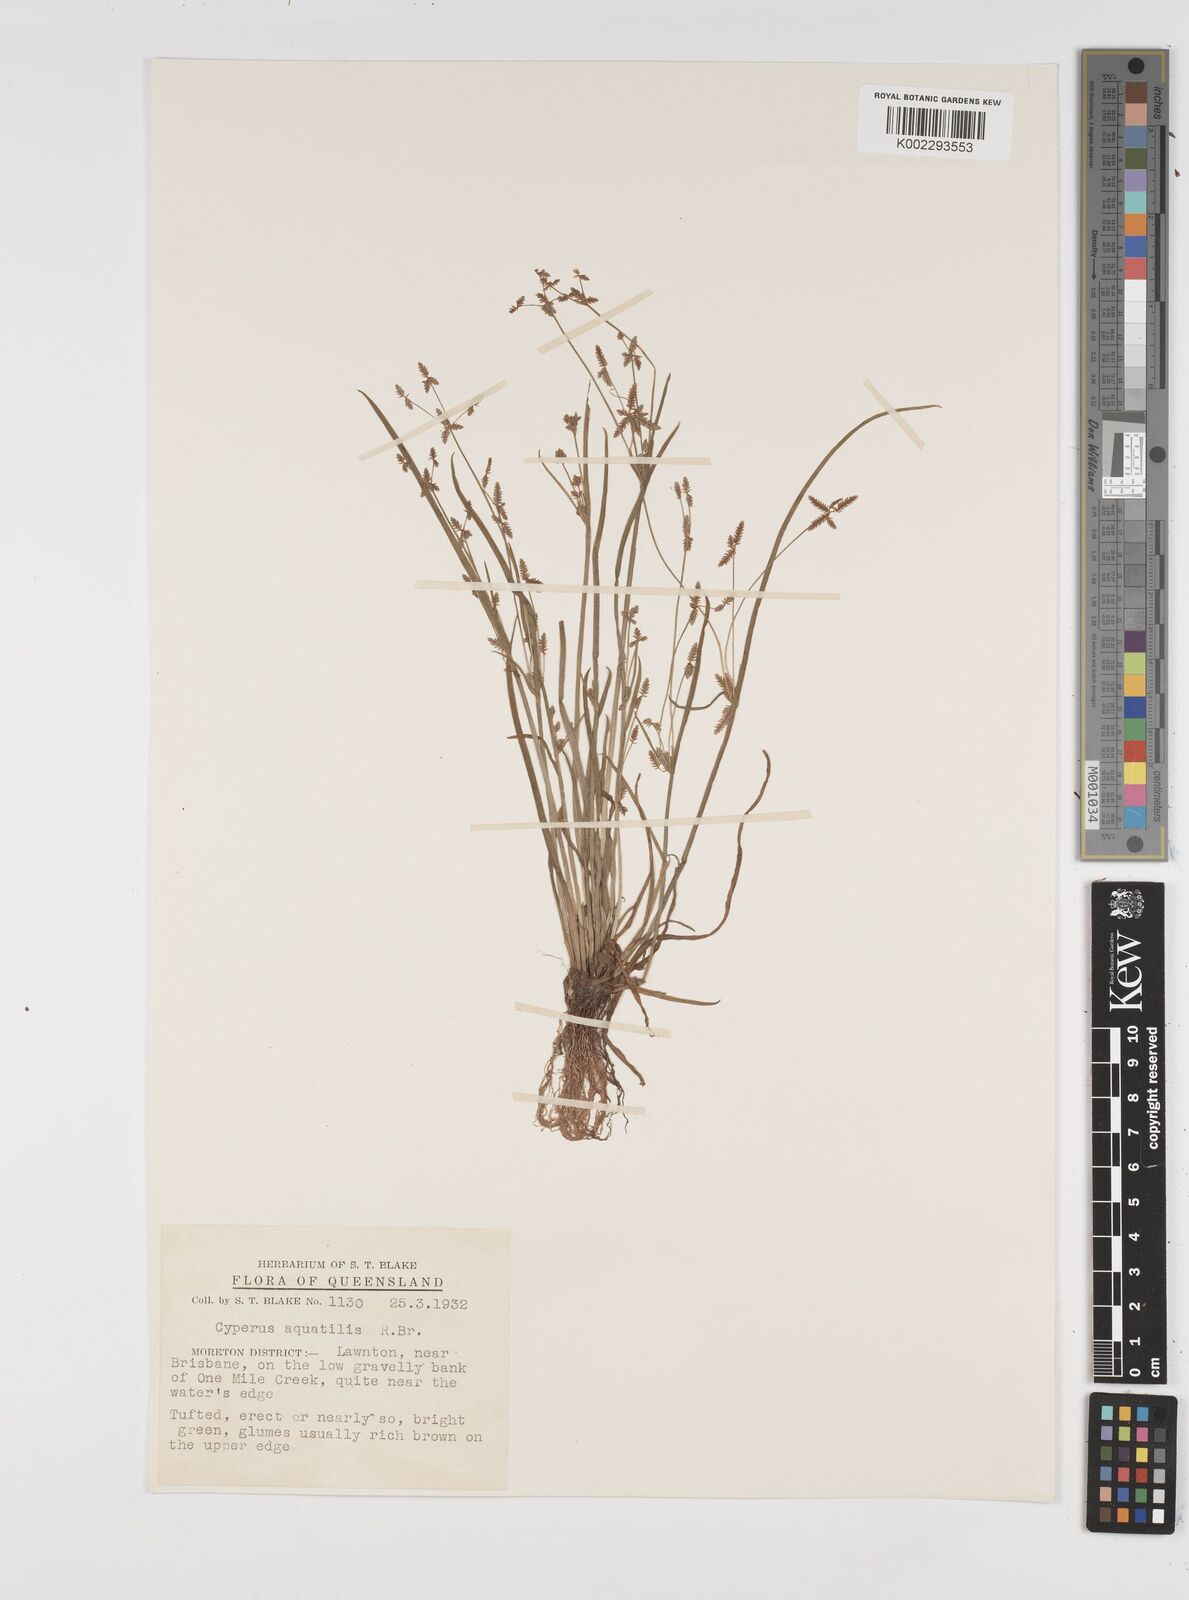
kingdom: Plantae
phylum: Tracheophyta
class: Liliopsida
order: Poales
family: Cyperaceae
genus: Cyperus
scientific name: Cyperus aquatilis
